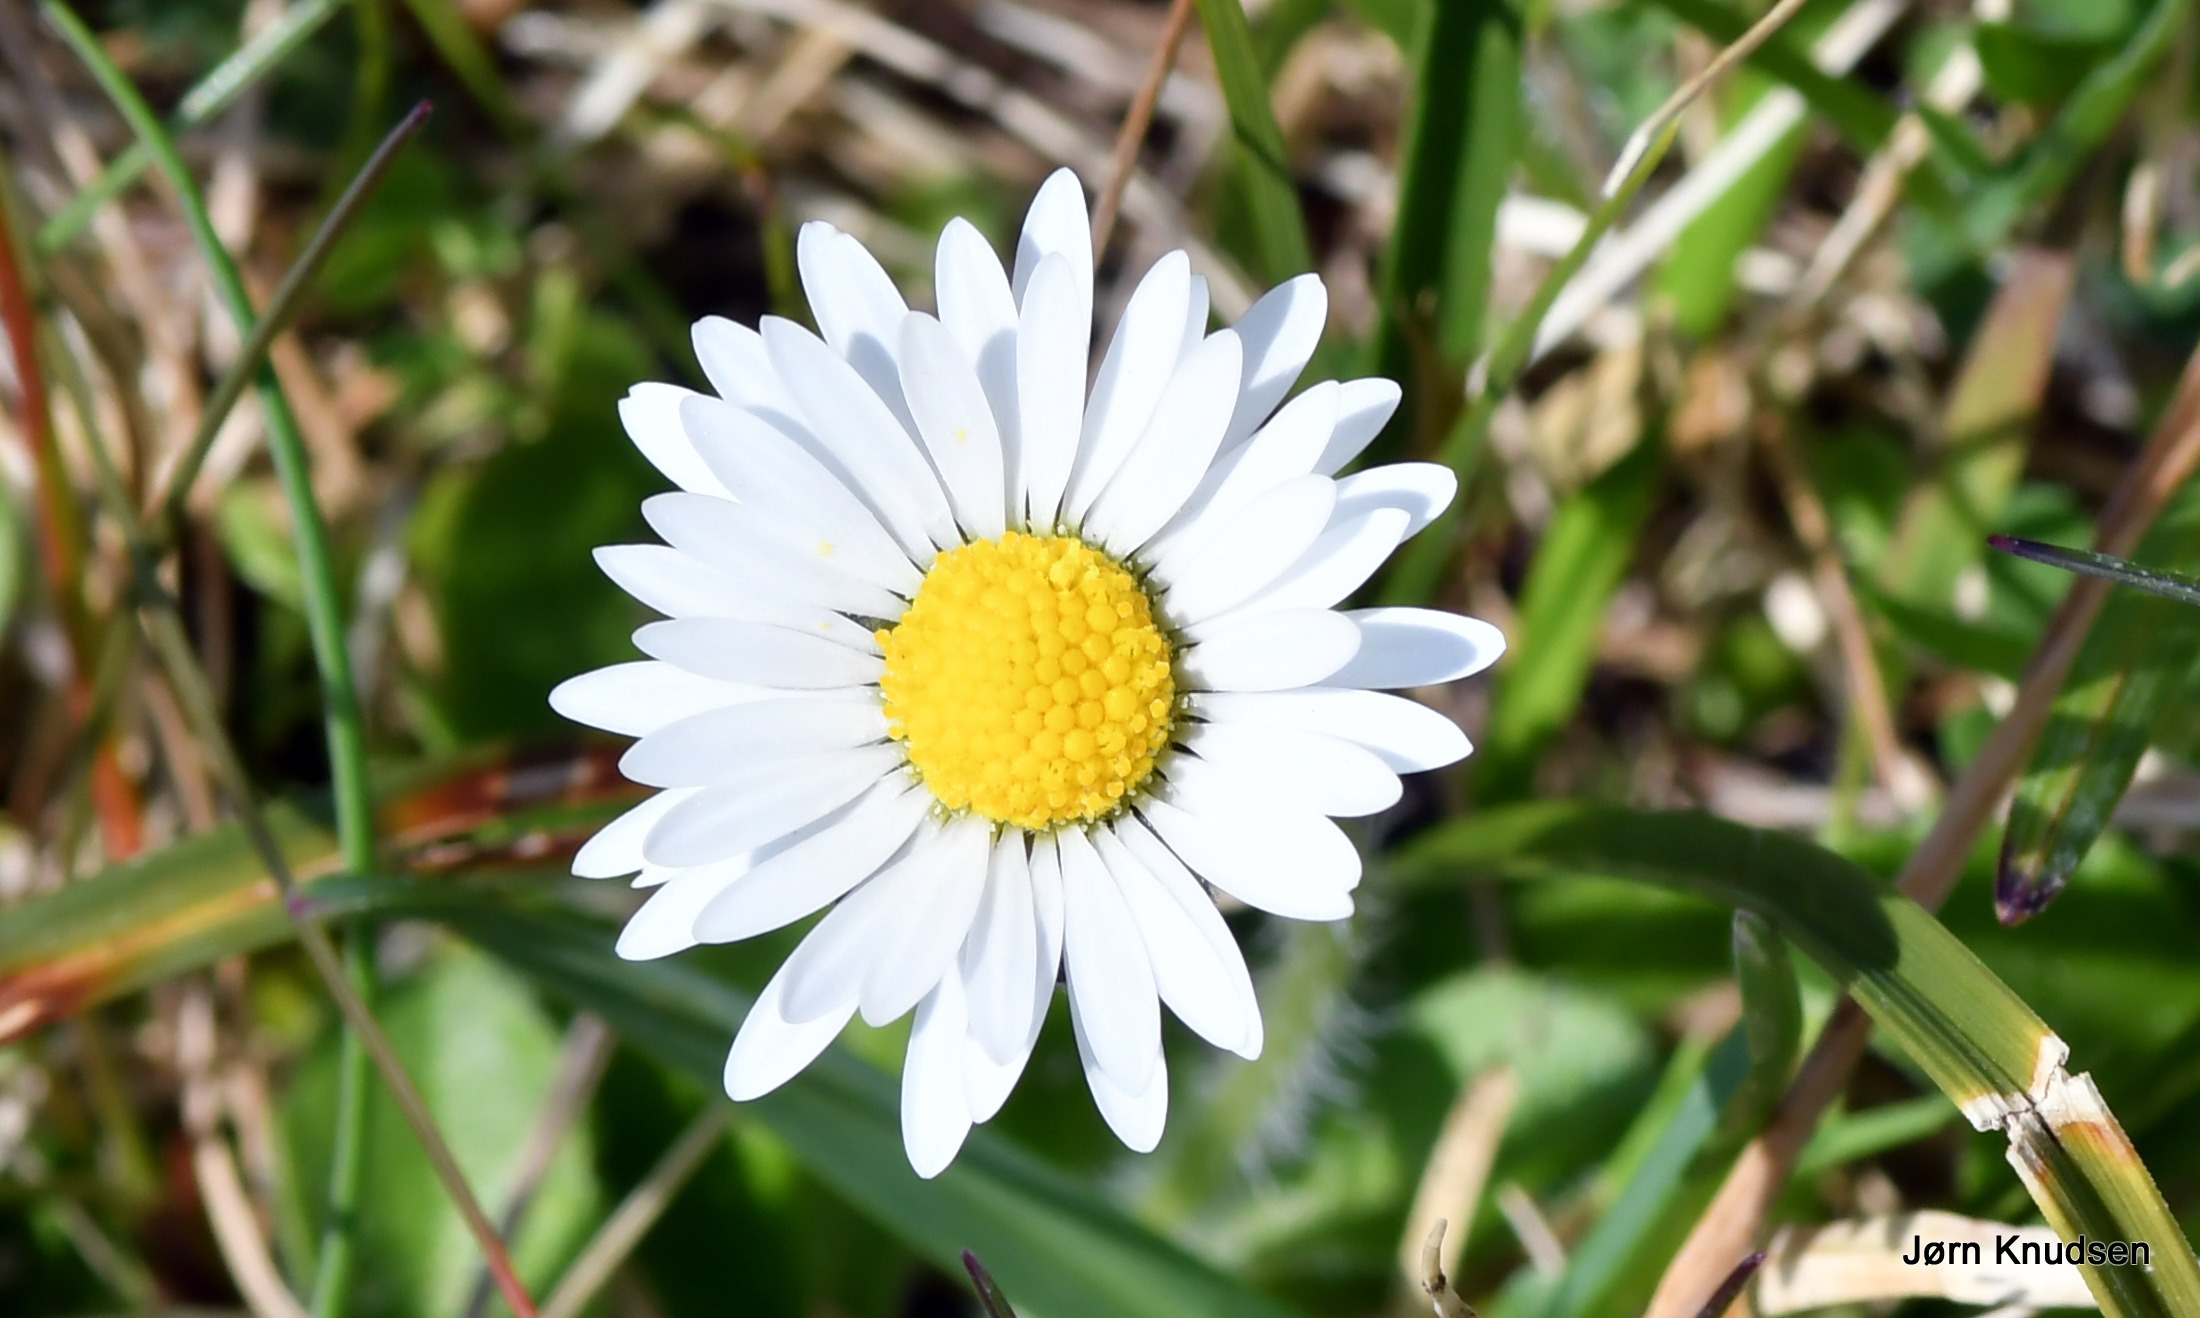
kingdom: Plantae
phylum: Tracheophyta
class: Magnoliopsida
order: Asterales
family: Asteraceae
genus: Bellis
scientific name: Bellis perennis
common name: Tusindfryd
